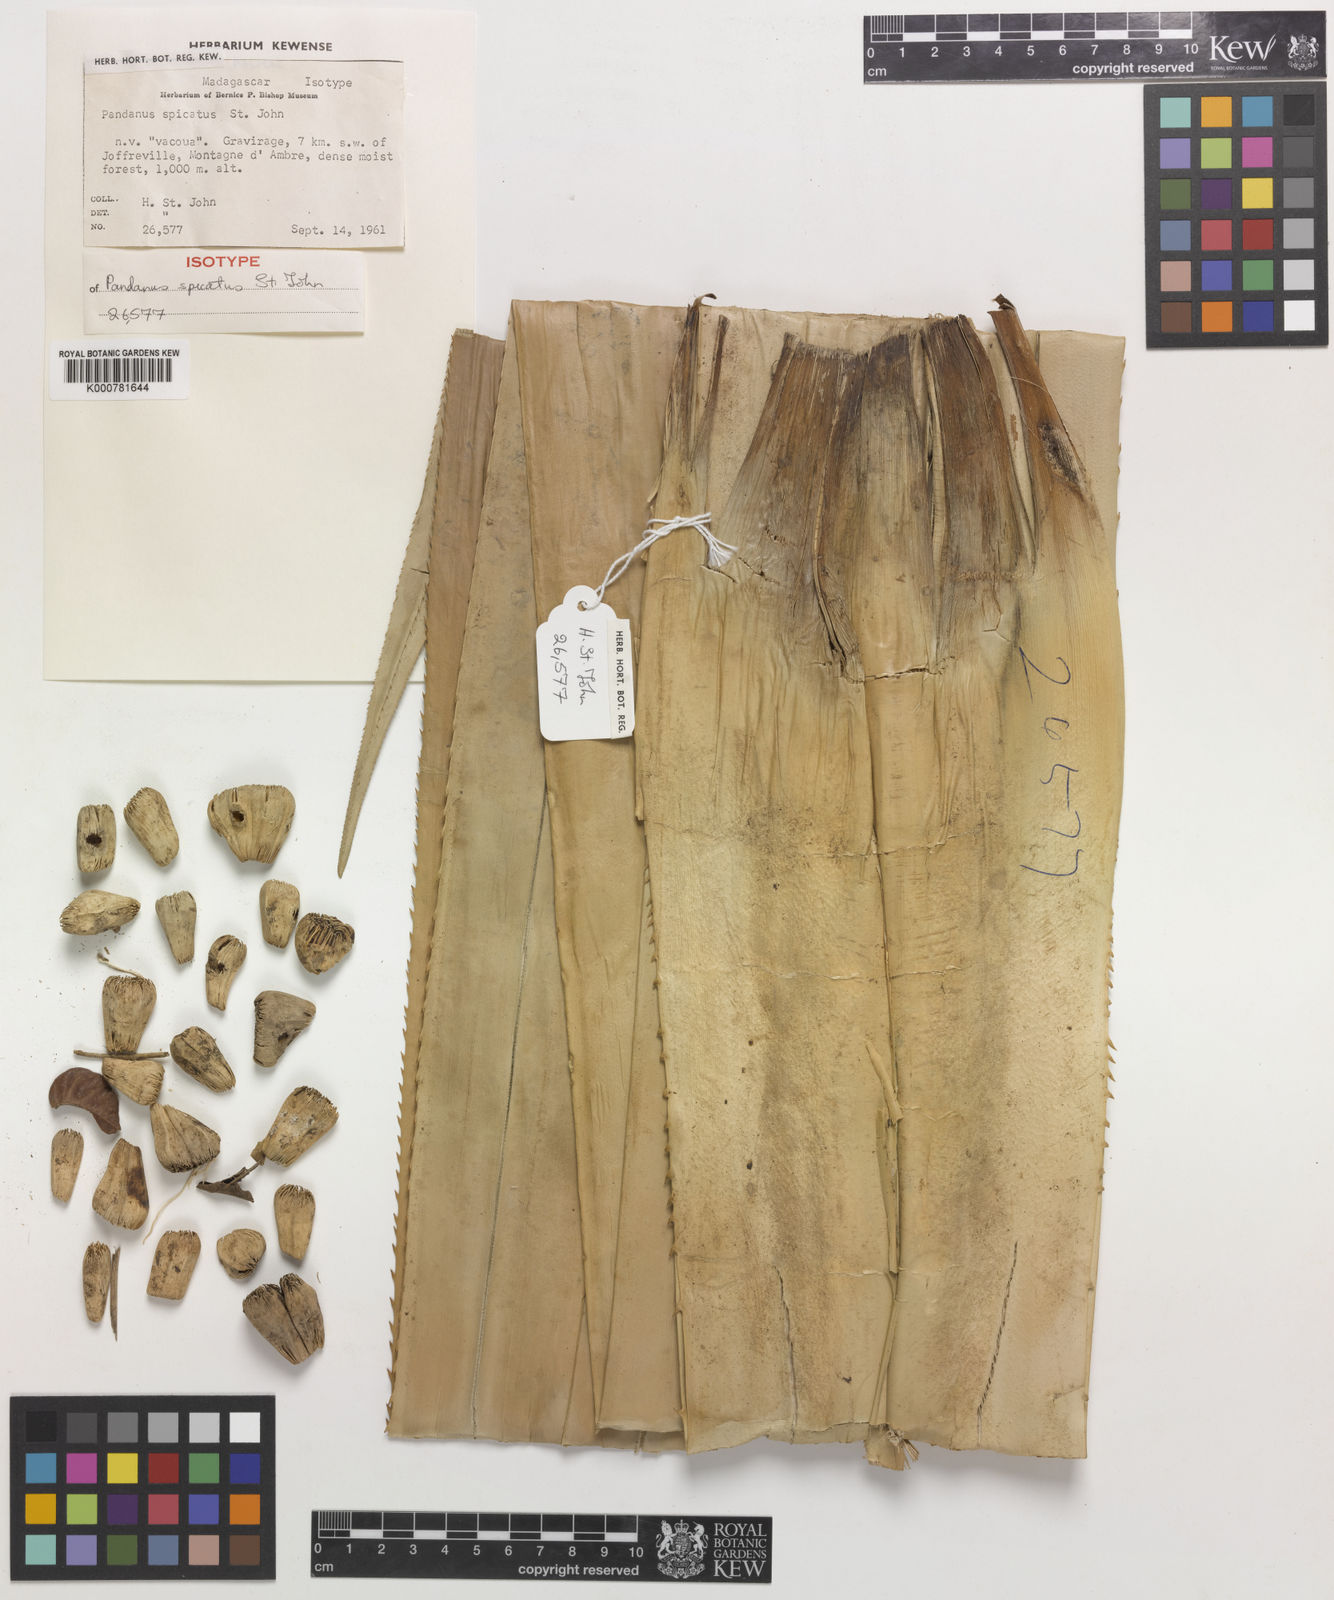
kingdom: Plantae
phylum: Tracheophyta
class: Liliopsida
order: Pandanales
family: Pandanaceae
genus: Pandanus
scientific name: Pandanus spicatus
